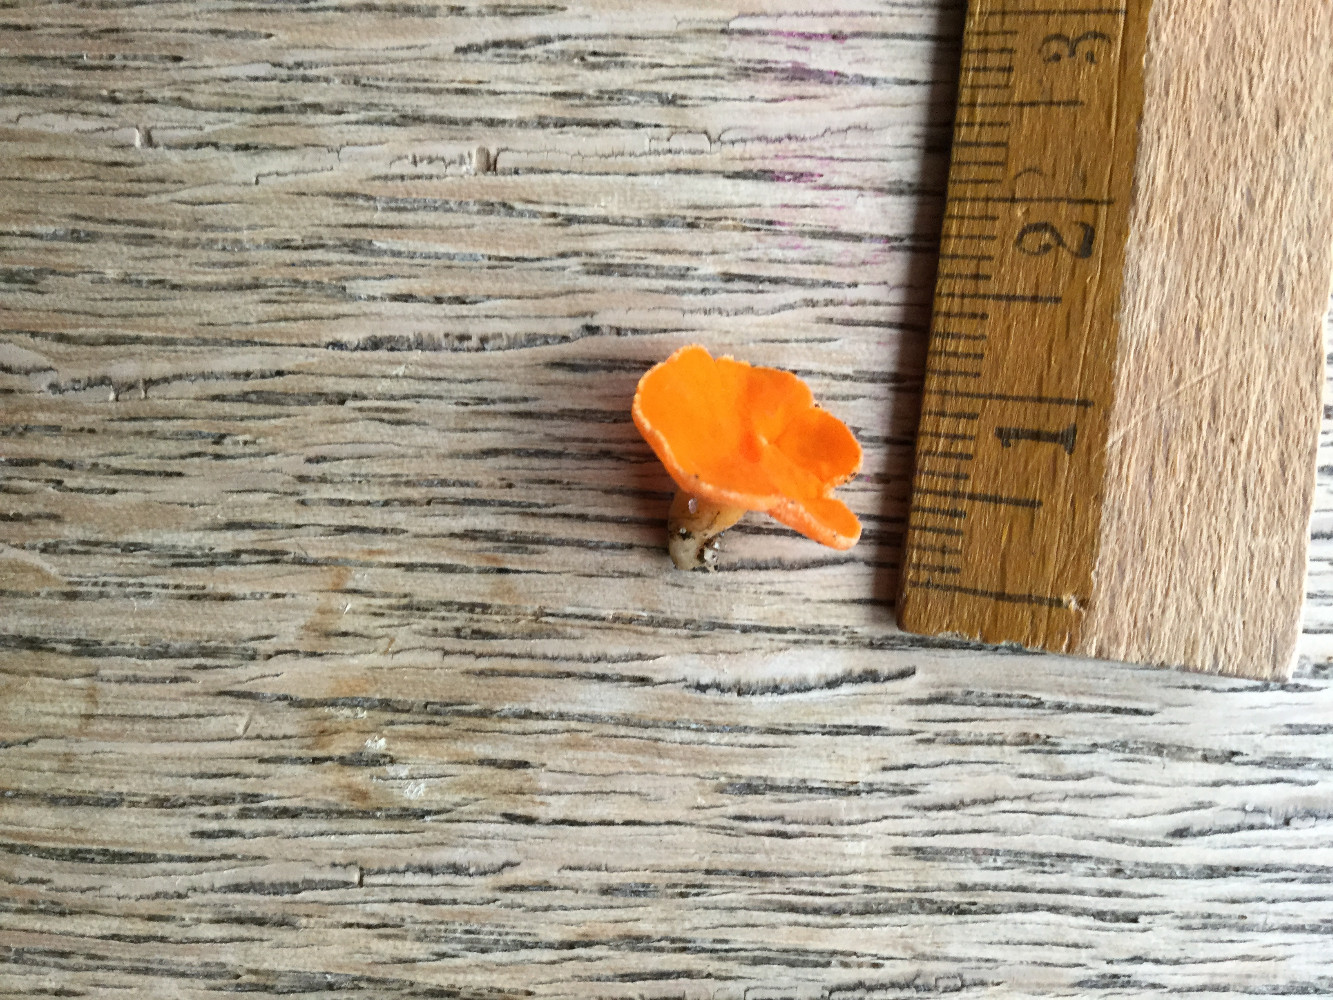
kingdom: Fungi
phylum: Ascomycota
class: Pezizomycetes
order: Pezizales
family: Pyronemataceae
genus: Neottiella
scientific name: Neottiella rutilans
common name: jomfruhår-mosbæger
